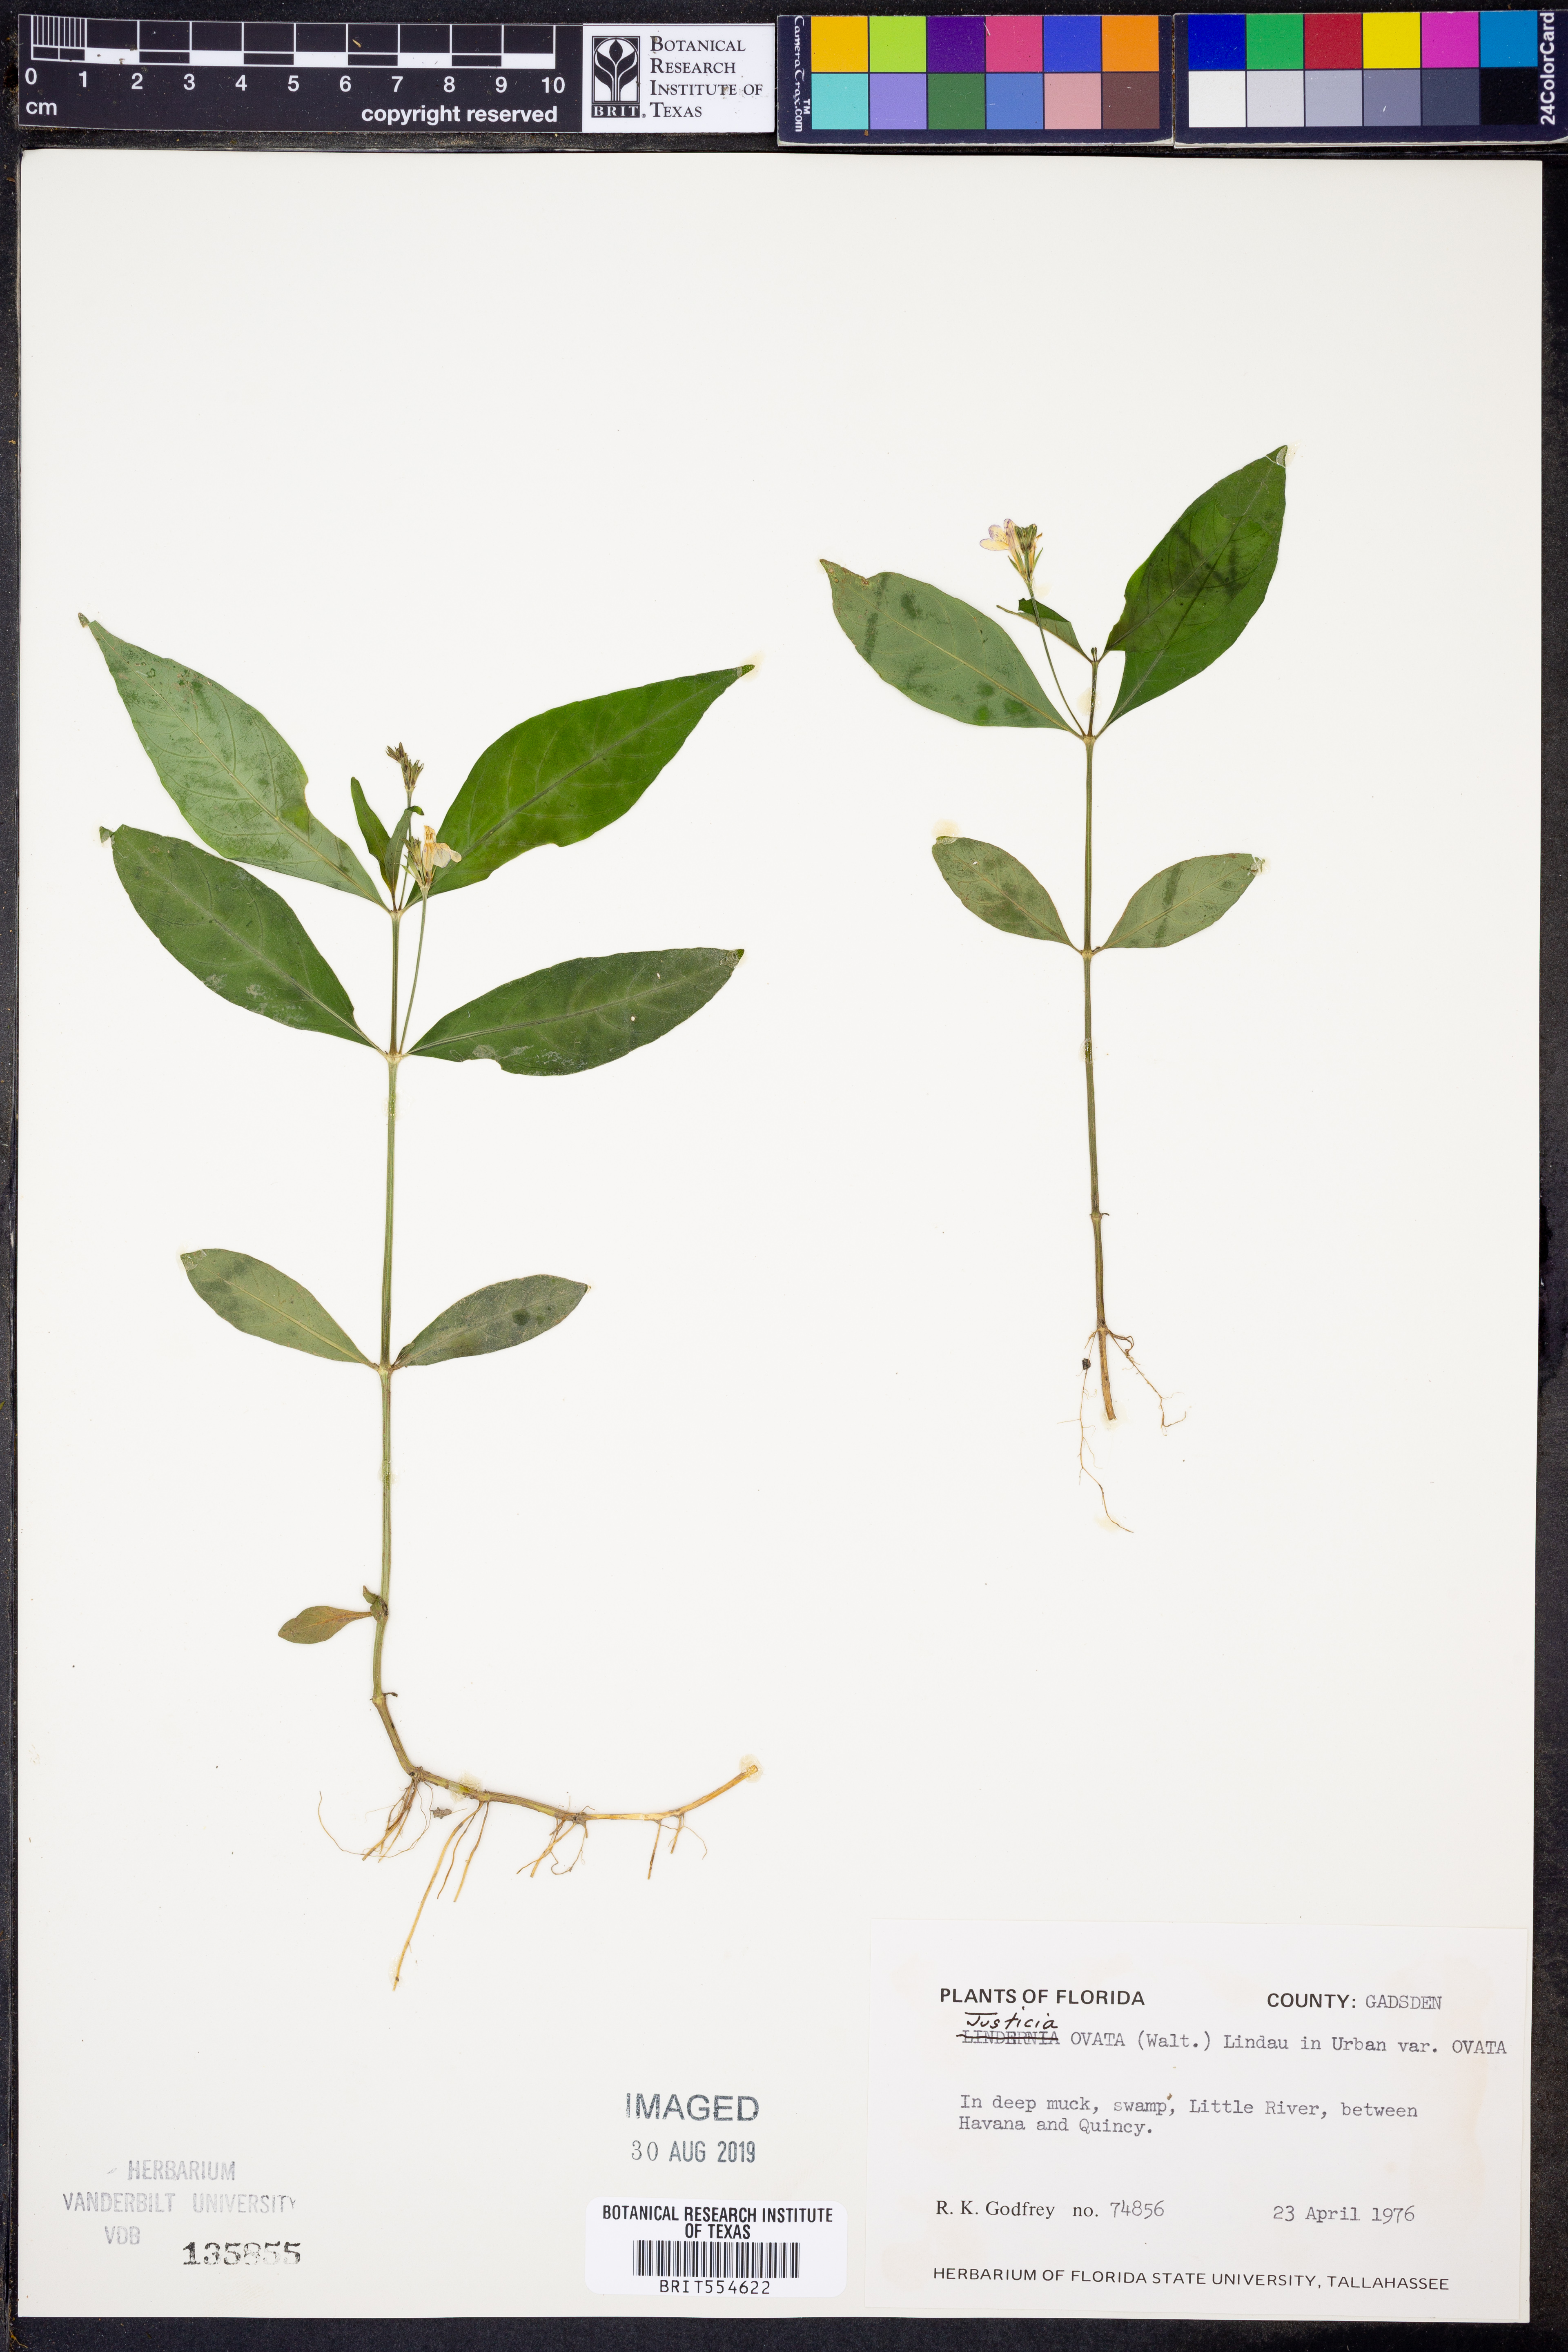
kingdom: Plantae
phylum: Tracheophyta
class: Magnoliopsida
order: Lamiales
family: Acanthaceae
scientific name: Acanthaceae
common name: Acanthaceae
